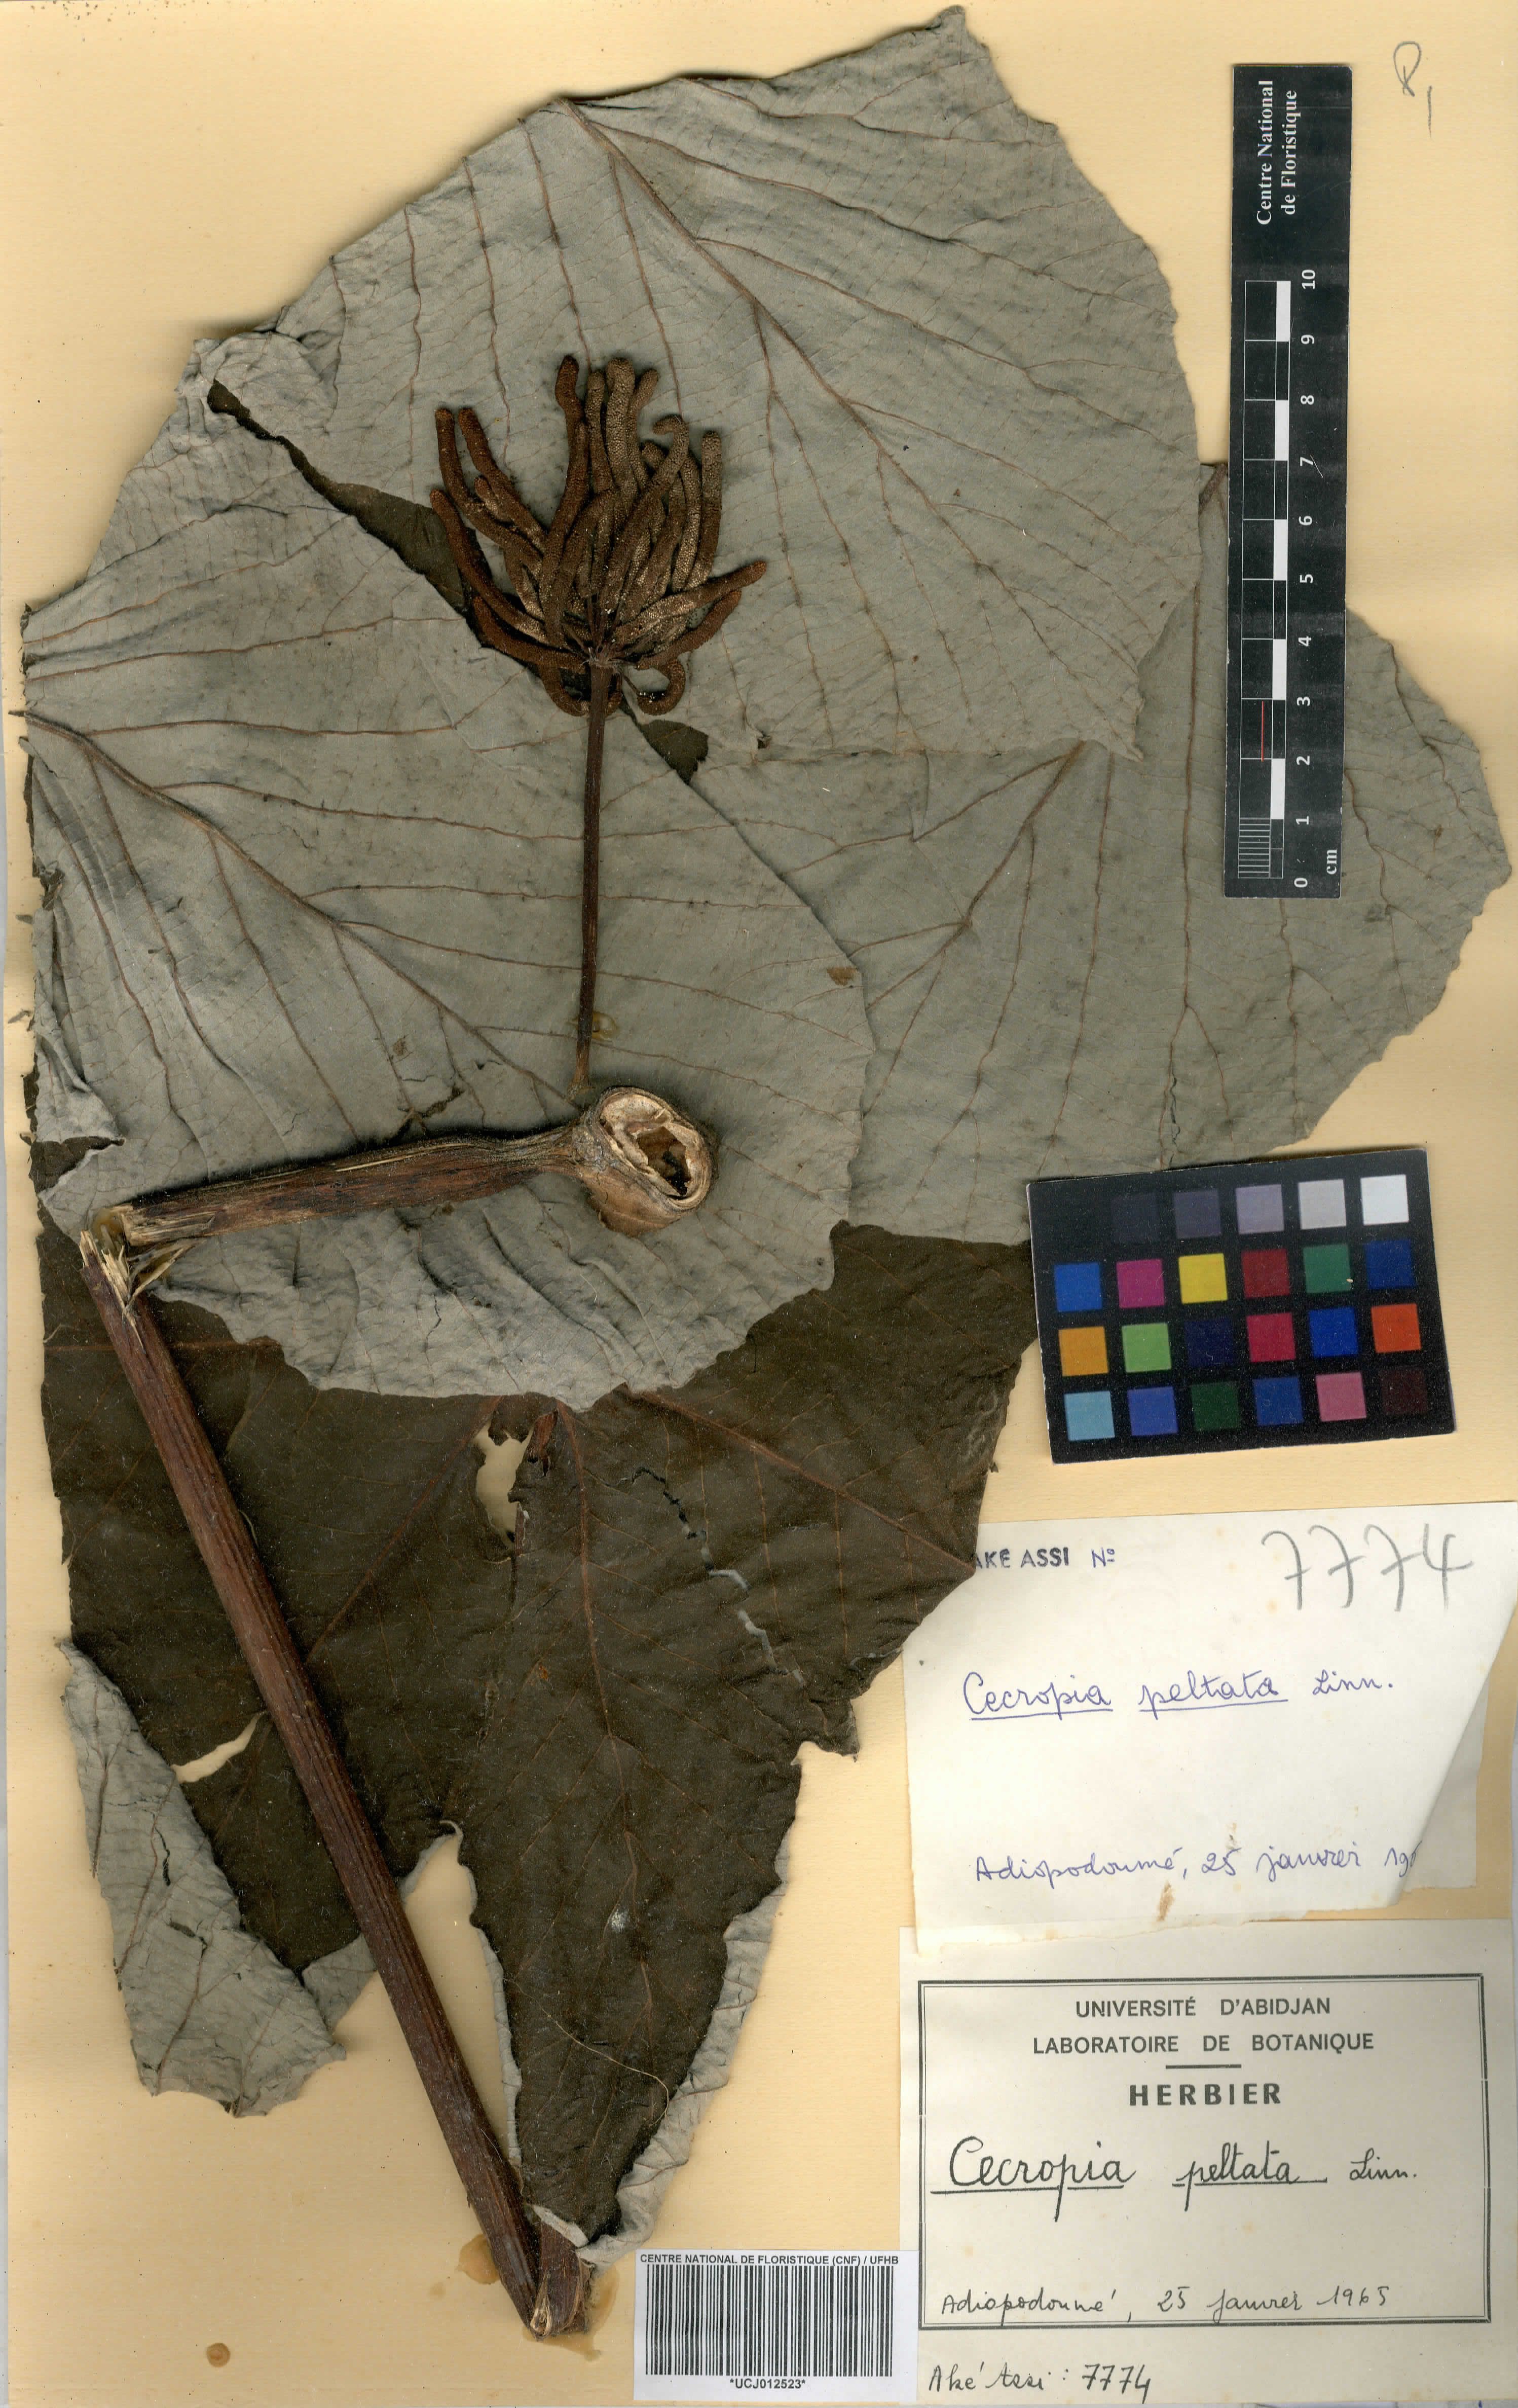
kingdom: Plantae
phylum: Tracheophyta
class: Magnoliopsida
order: Rosales
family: Urticaceae
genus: Cecropia
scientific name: Cecropia peltata
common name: Trumpet-tree
